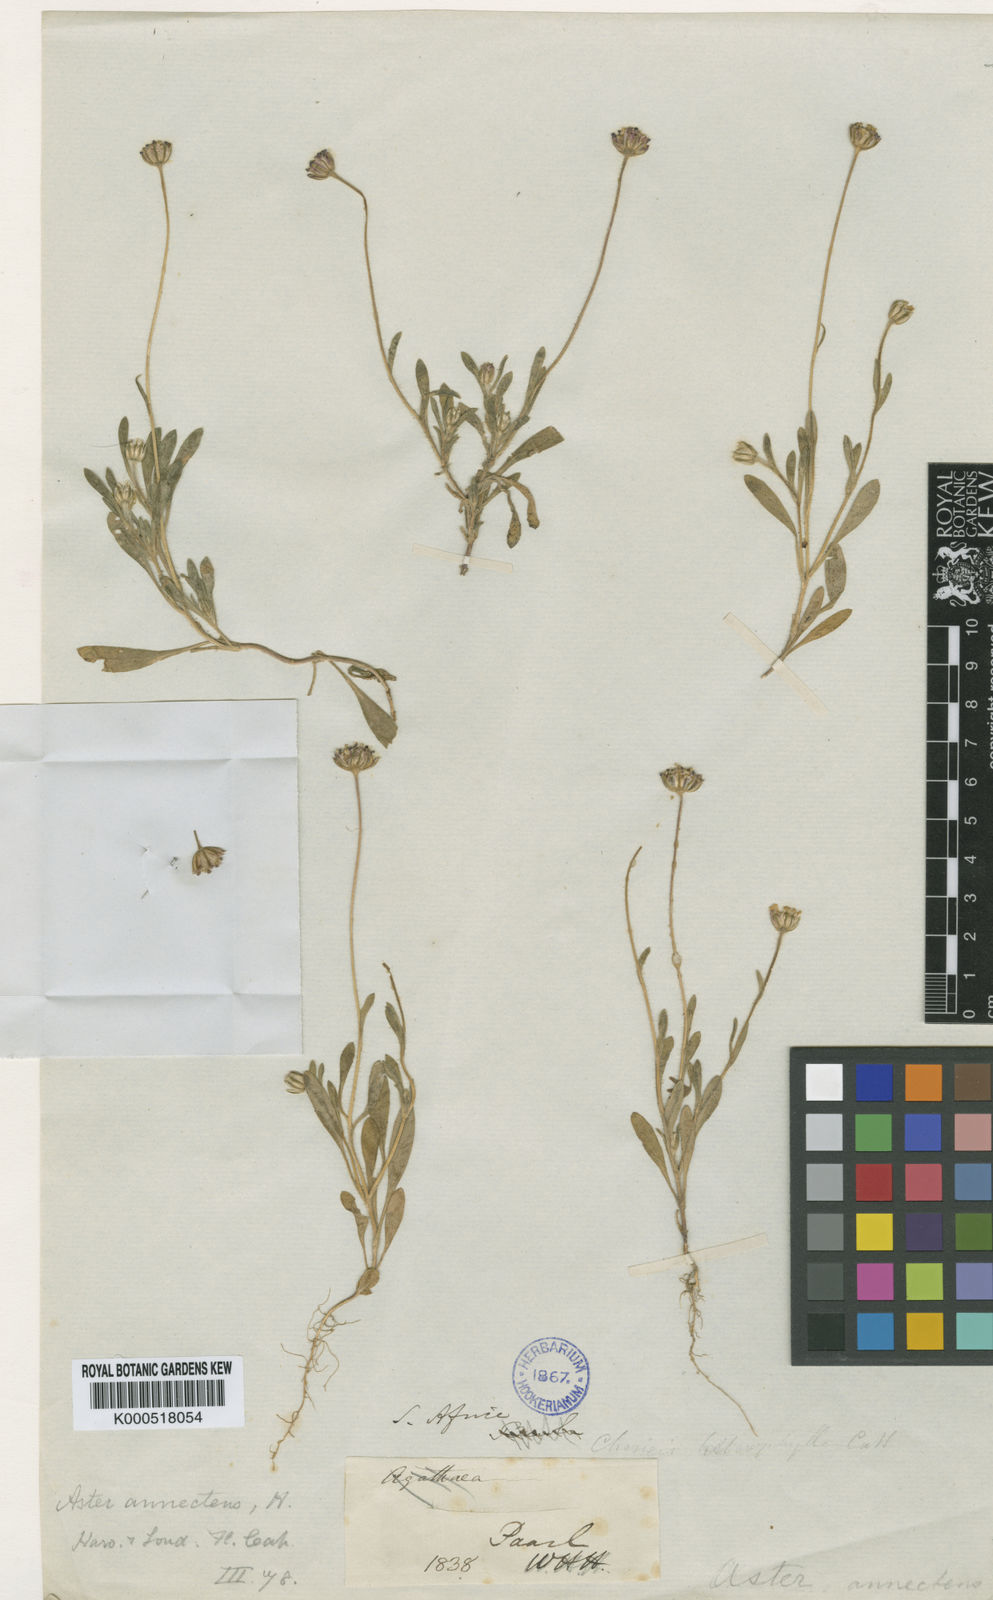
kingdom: Plantae
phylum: Tracheophyta
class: Magnoliopsida
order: Asterales
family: Asteraceae
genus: Felicia
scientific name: Felicia annectens
